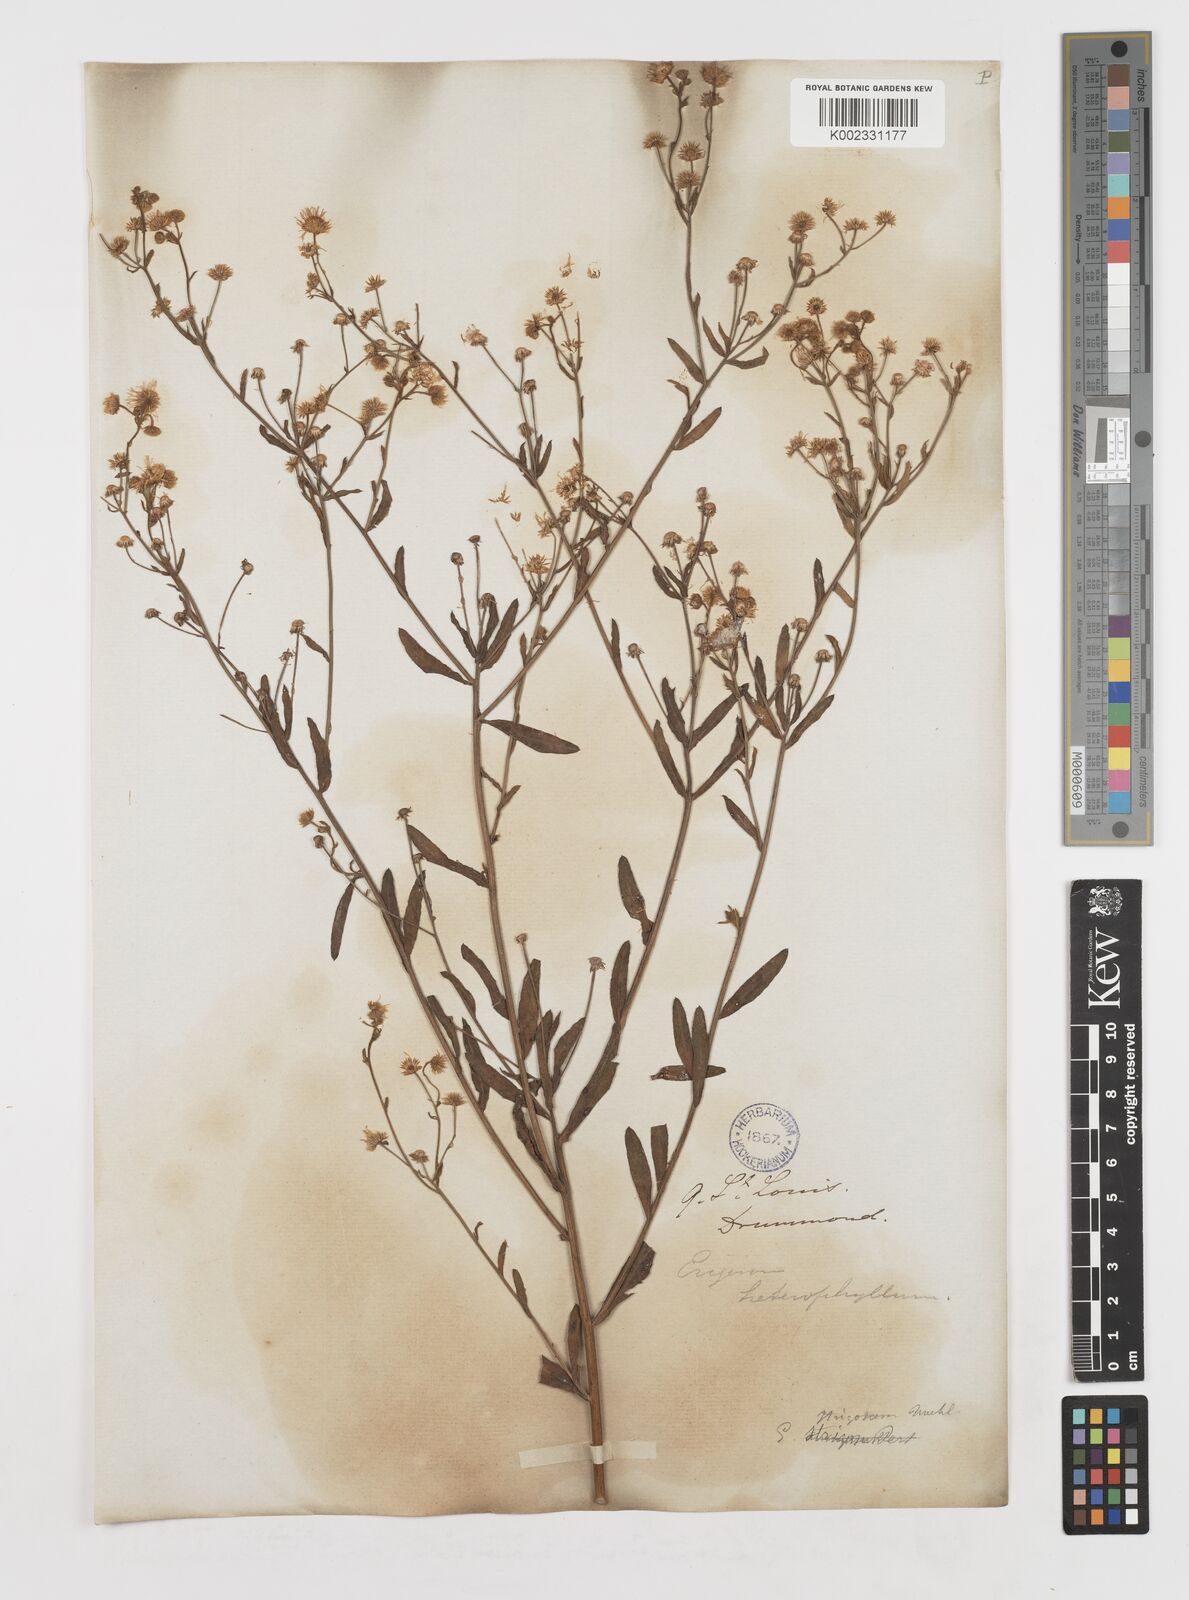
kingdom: Plantae
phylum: Tracheophyta
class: Magnoliopsida
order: Asterales
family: Asteraceae
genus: Erigeron
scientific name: Erigeron strigosus
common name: Common eastern fleabane
